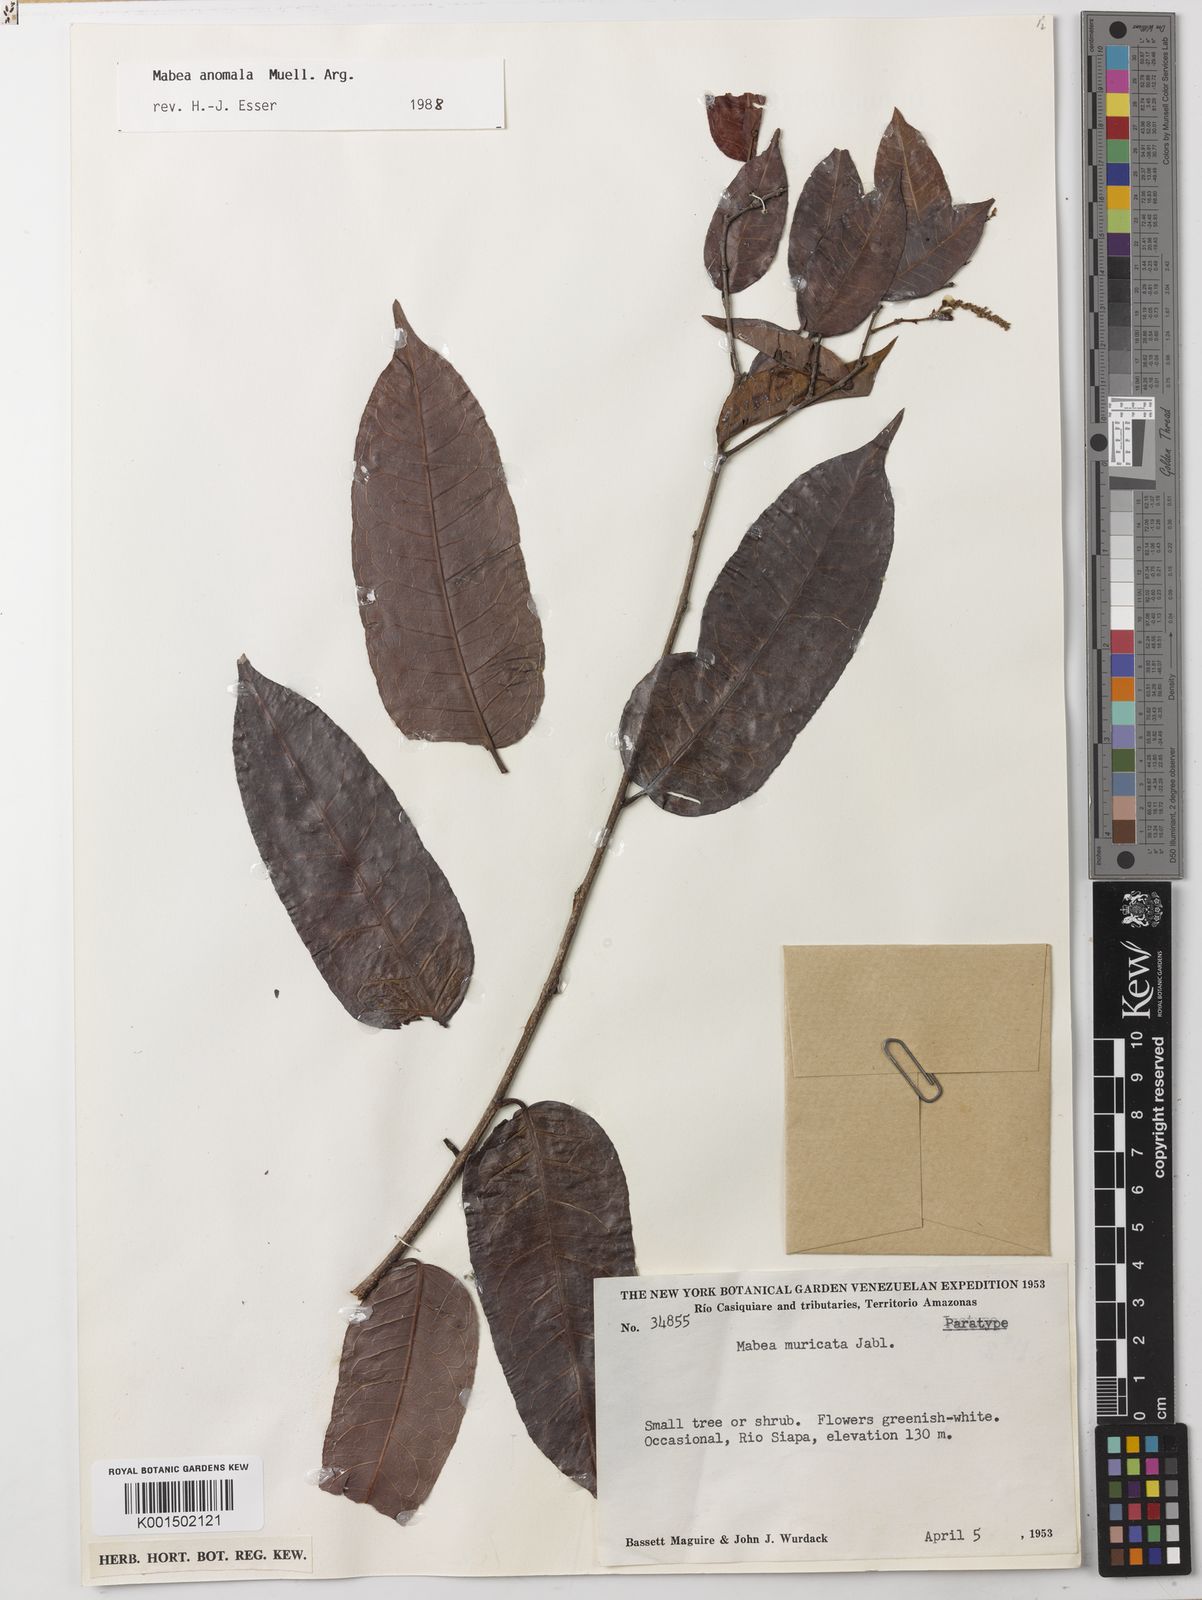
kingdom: Plantae
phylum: Tracheophyta
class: Magnoliopsida
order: Malpighiales
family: Euphorbiaceae
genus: Mabea
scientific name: Mabea nitida
